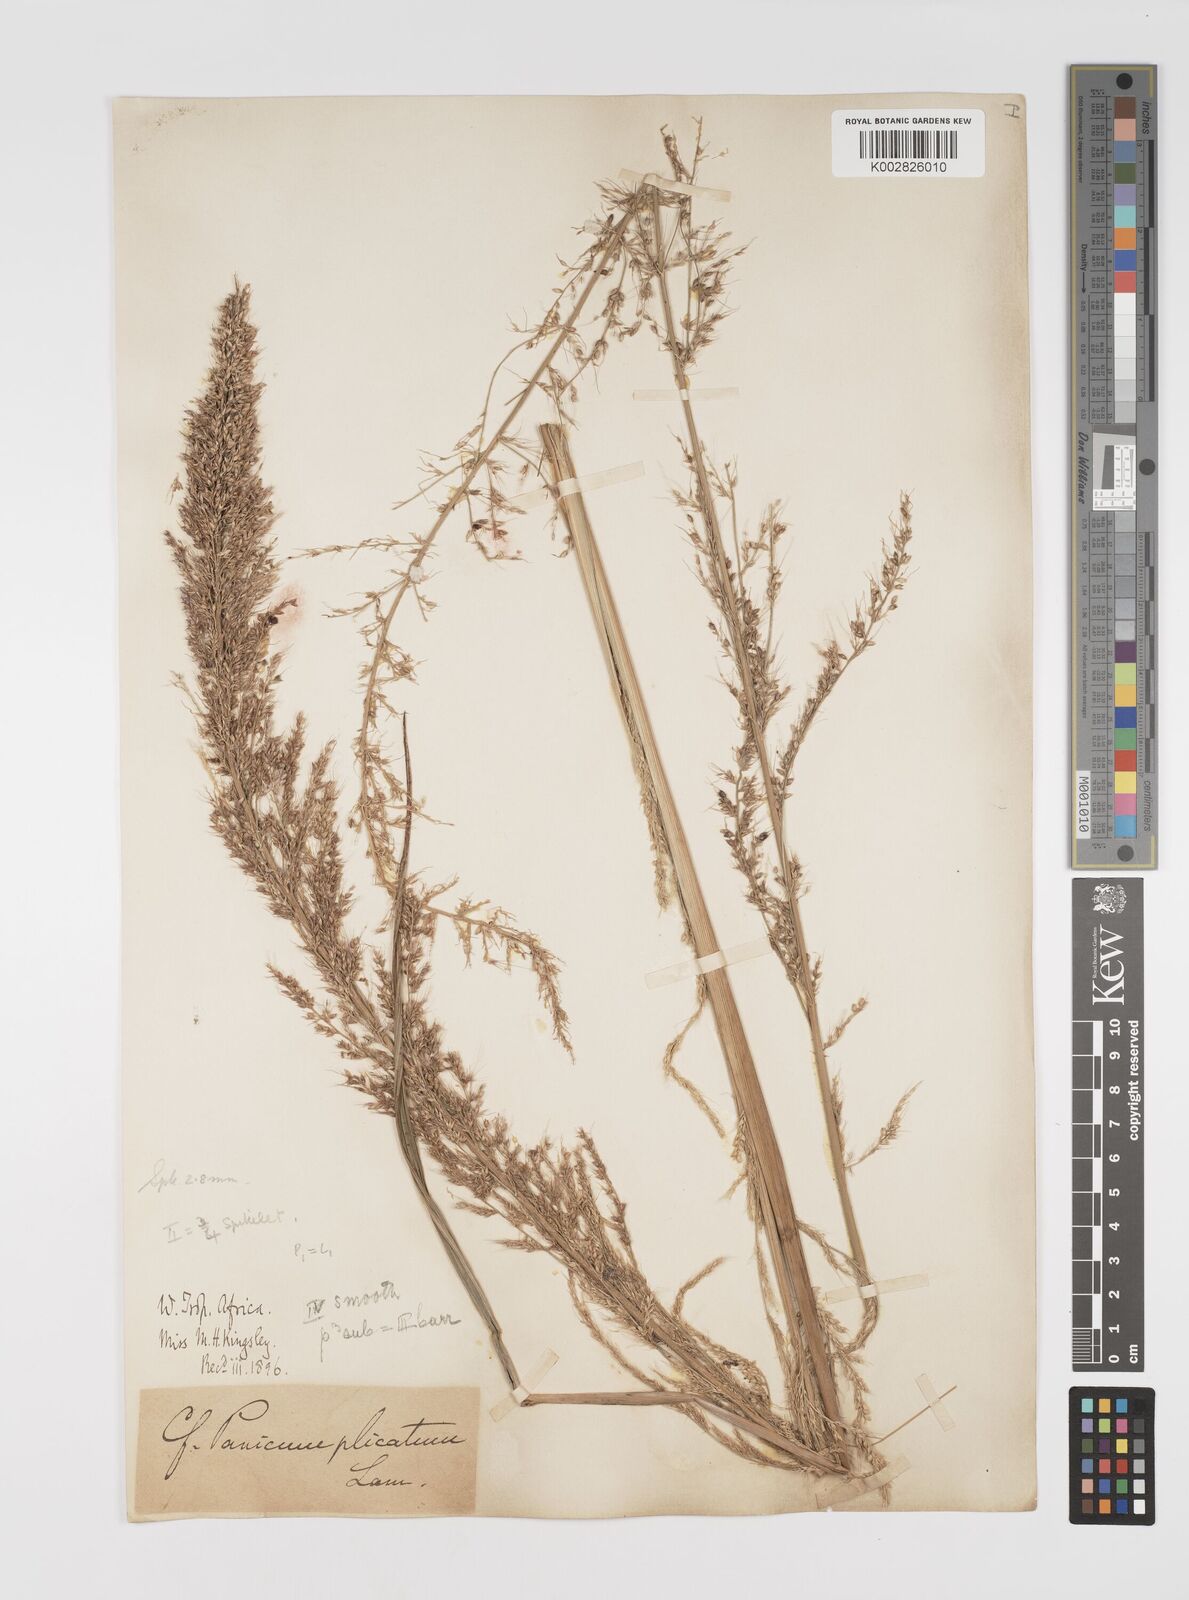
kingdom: Plantae
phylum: Tracheophyta
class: Liliopsida
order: Poales
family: Poaceae
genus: Setaria
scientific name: Setaria megaphylla
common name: Bigleaf bristlegrass
